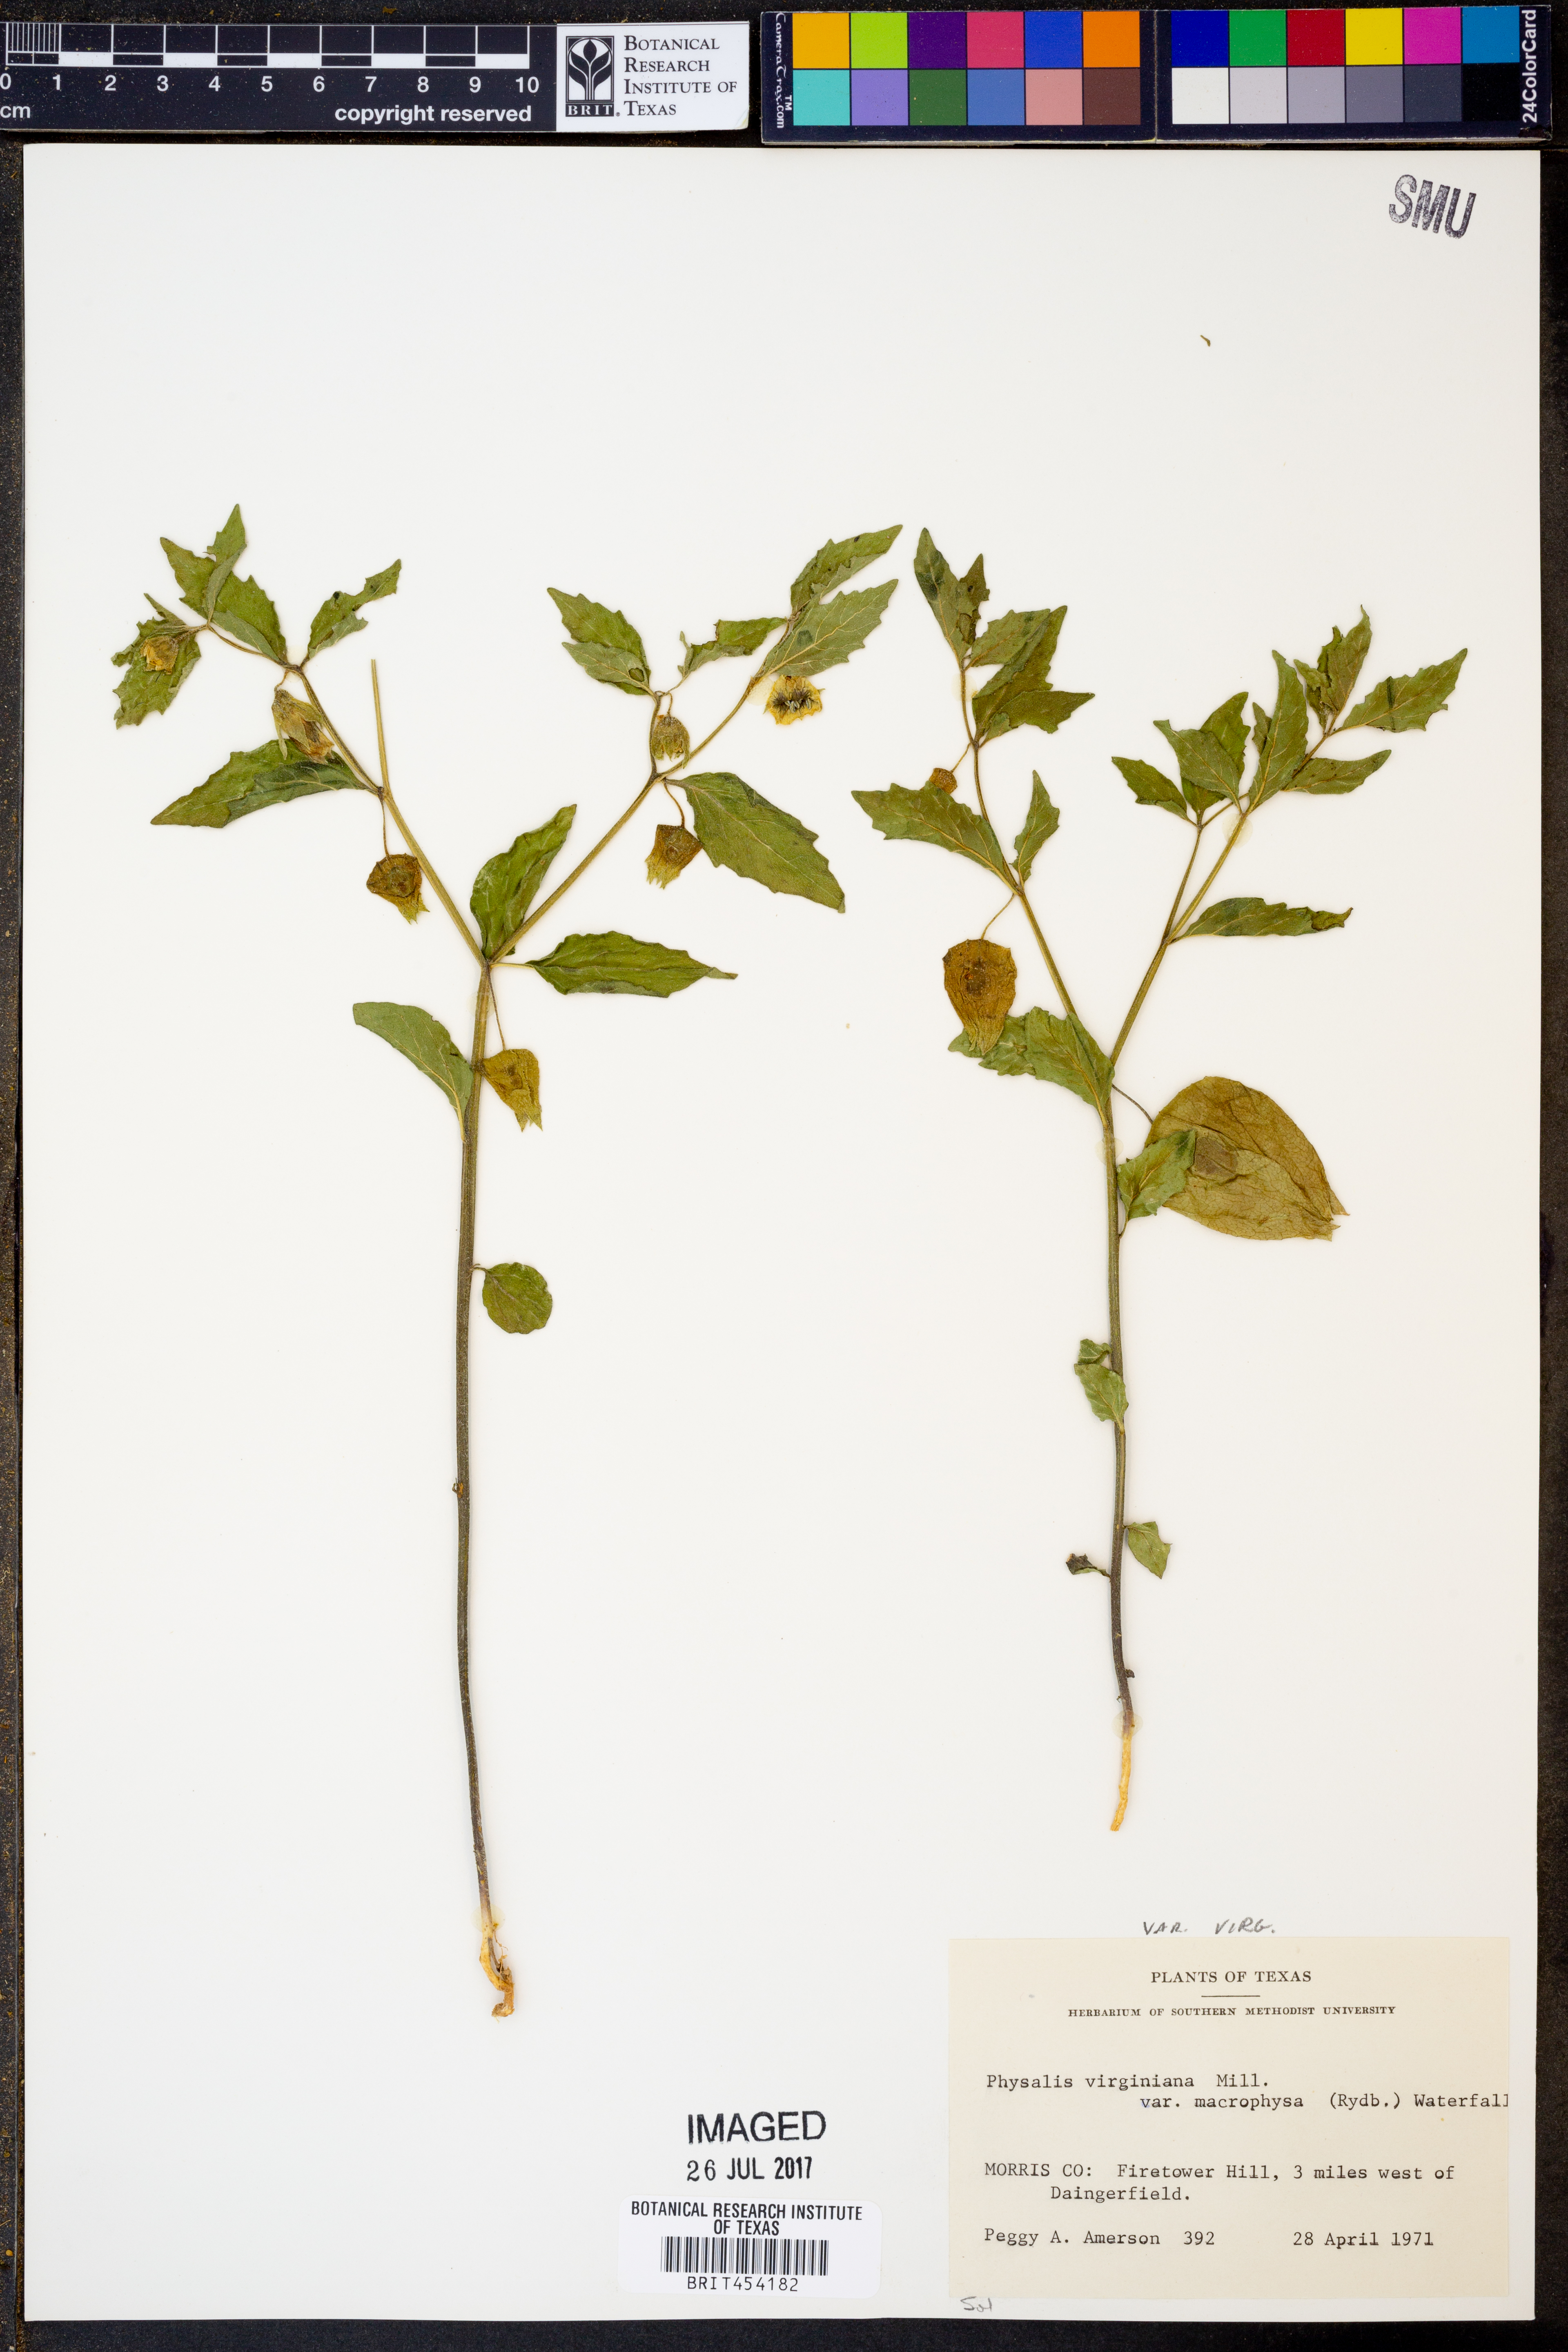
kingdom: Plantae
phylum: Tracheophyta
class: Magnoliopsida
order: Solanales
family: Solanaceae
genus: Physalis
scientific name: Physalis virginiana
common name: Virginia ground-cherry
